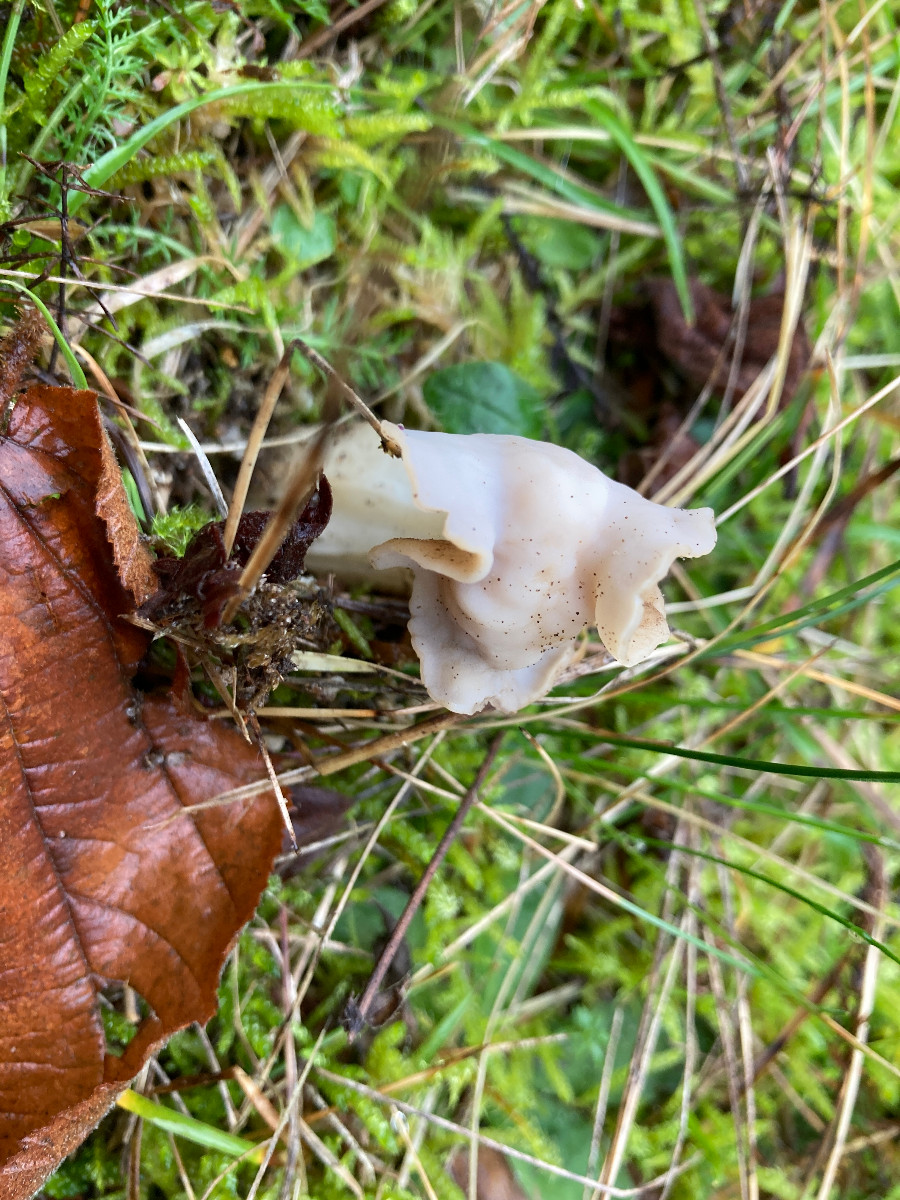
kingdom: Fungi
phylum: Ascomycota
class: Pezizomycetes
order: Pezizales
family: Helvellaceae
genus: Helvella
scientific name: Helvella crispa
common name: kruset foldhat
